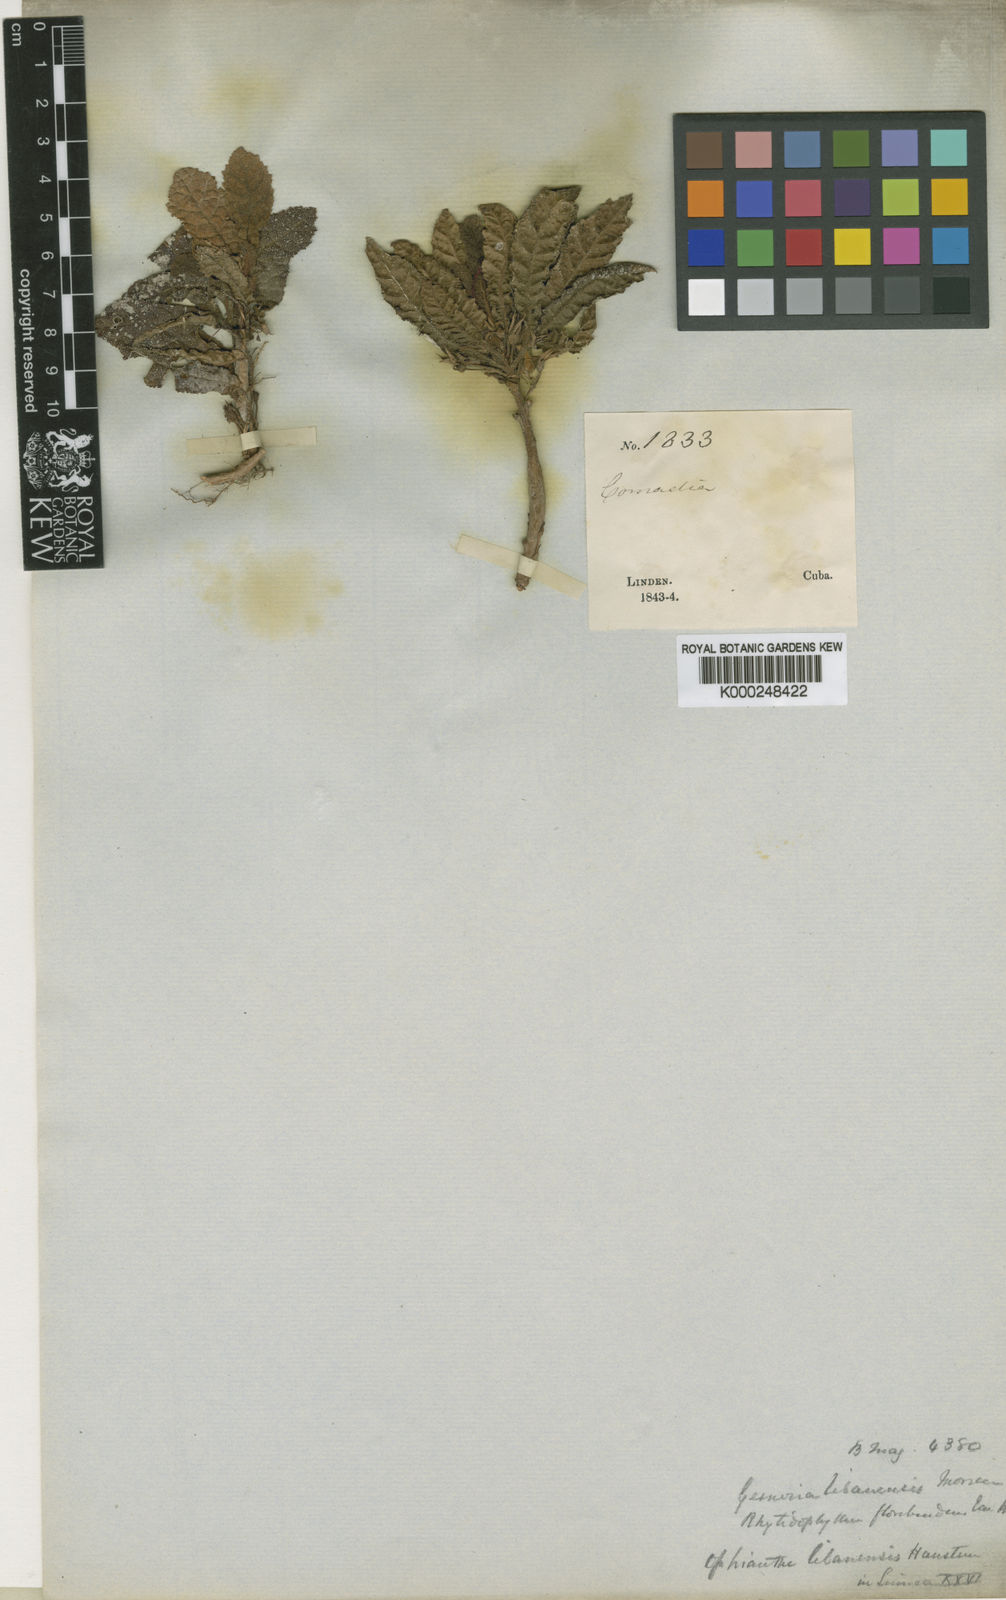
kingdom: Plantae
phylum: Tracheophyta
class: Magnoliopsida
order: Lamiales
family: Gesneriaceae
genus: Gesneria
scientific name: Gesneria libanensis
